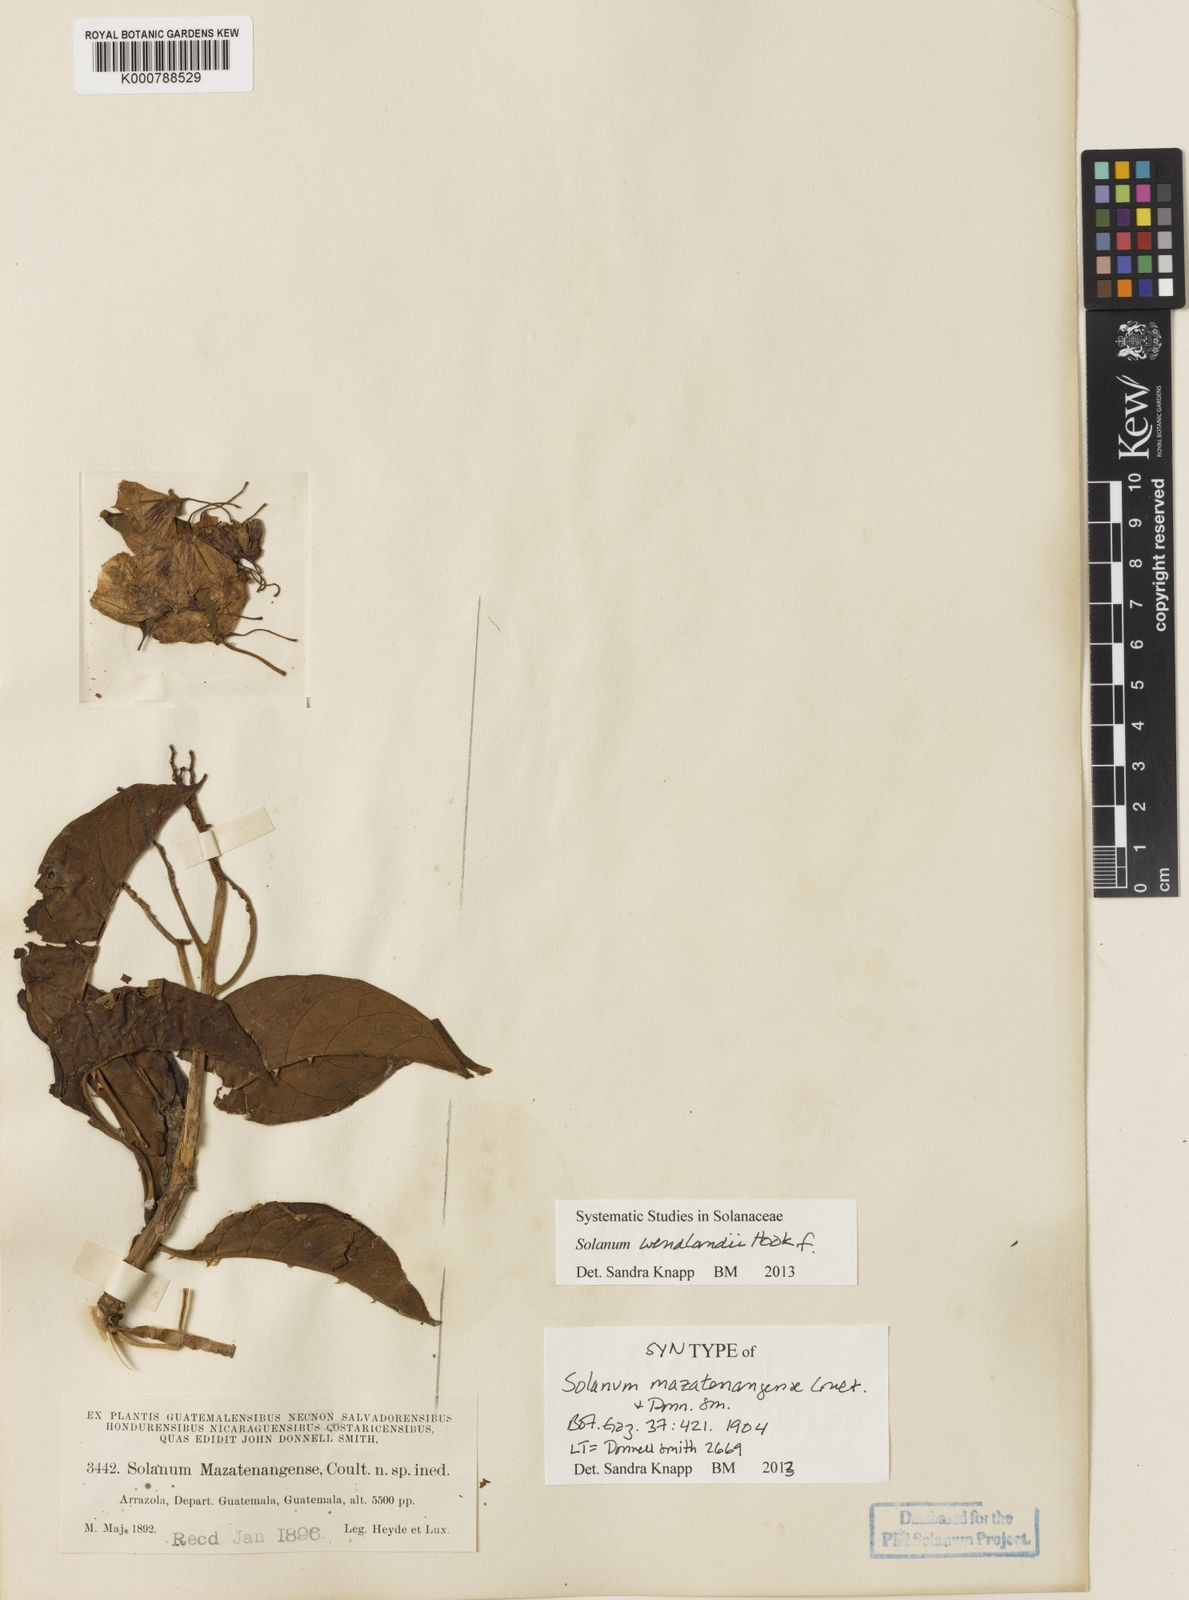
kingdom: Plantae
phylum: Tracheophyta
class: Magnoliopsida
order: Solanales
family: Solanaceae
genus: Solanum
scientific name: Solanum wendlandii
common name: Costa rican nightshade
